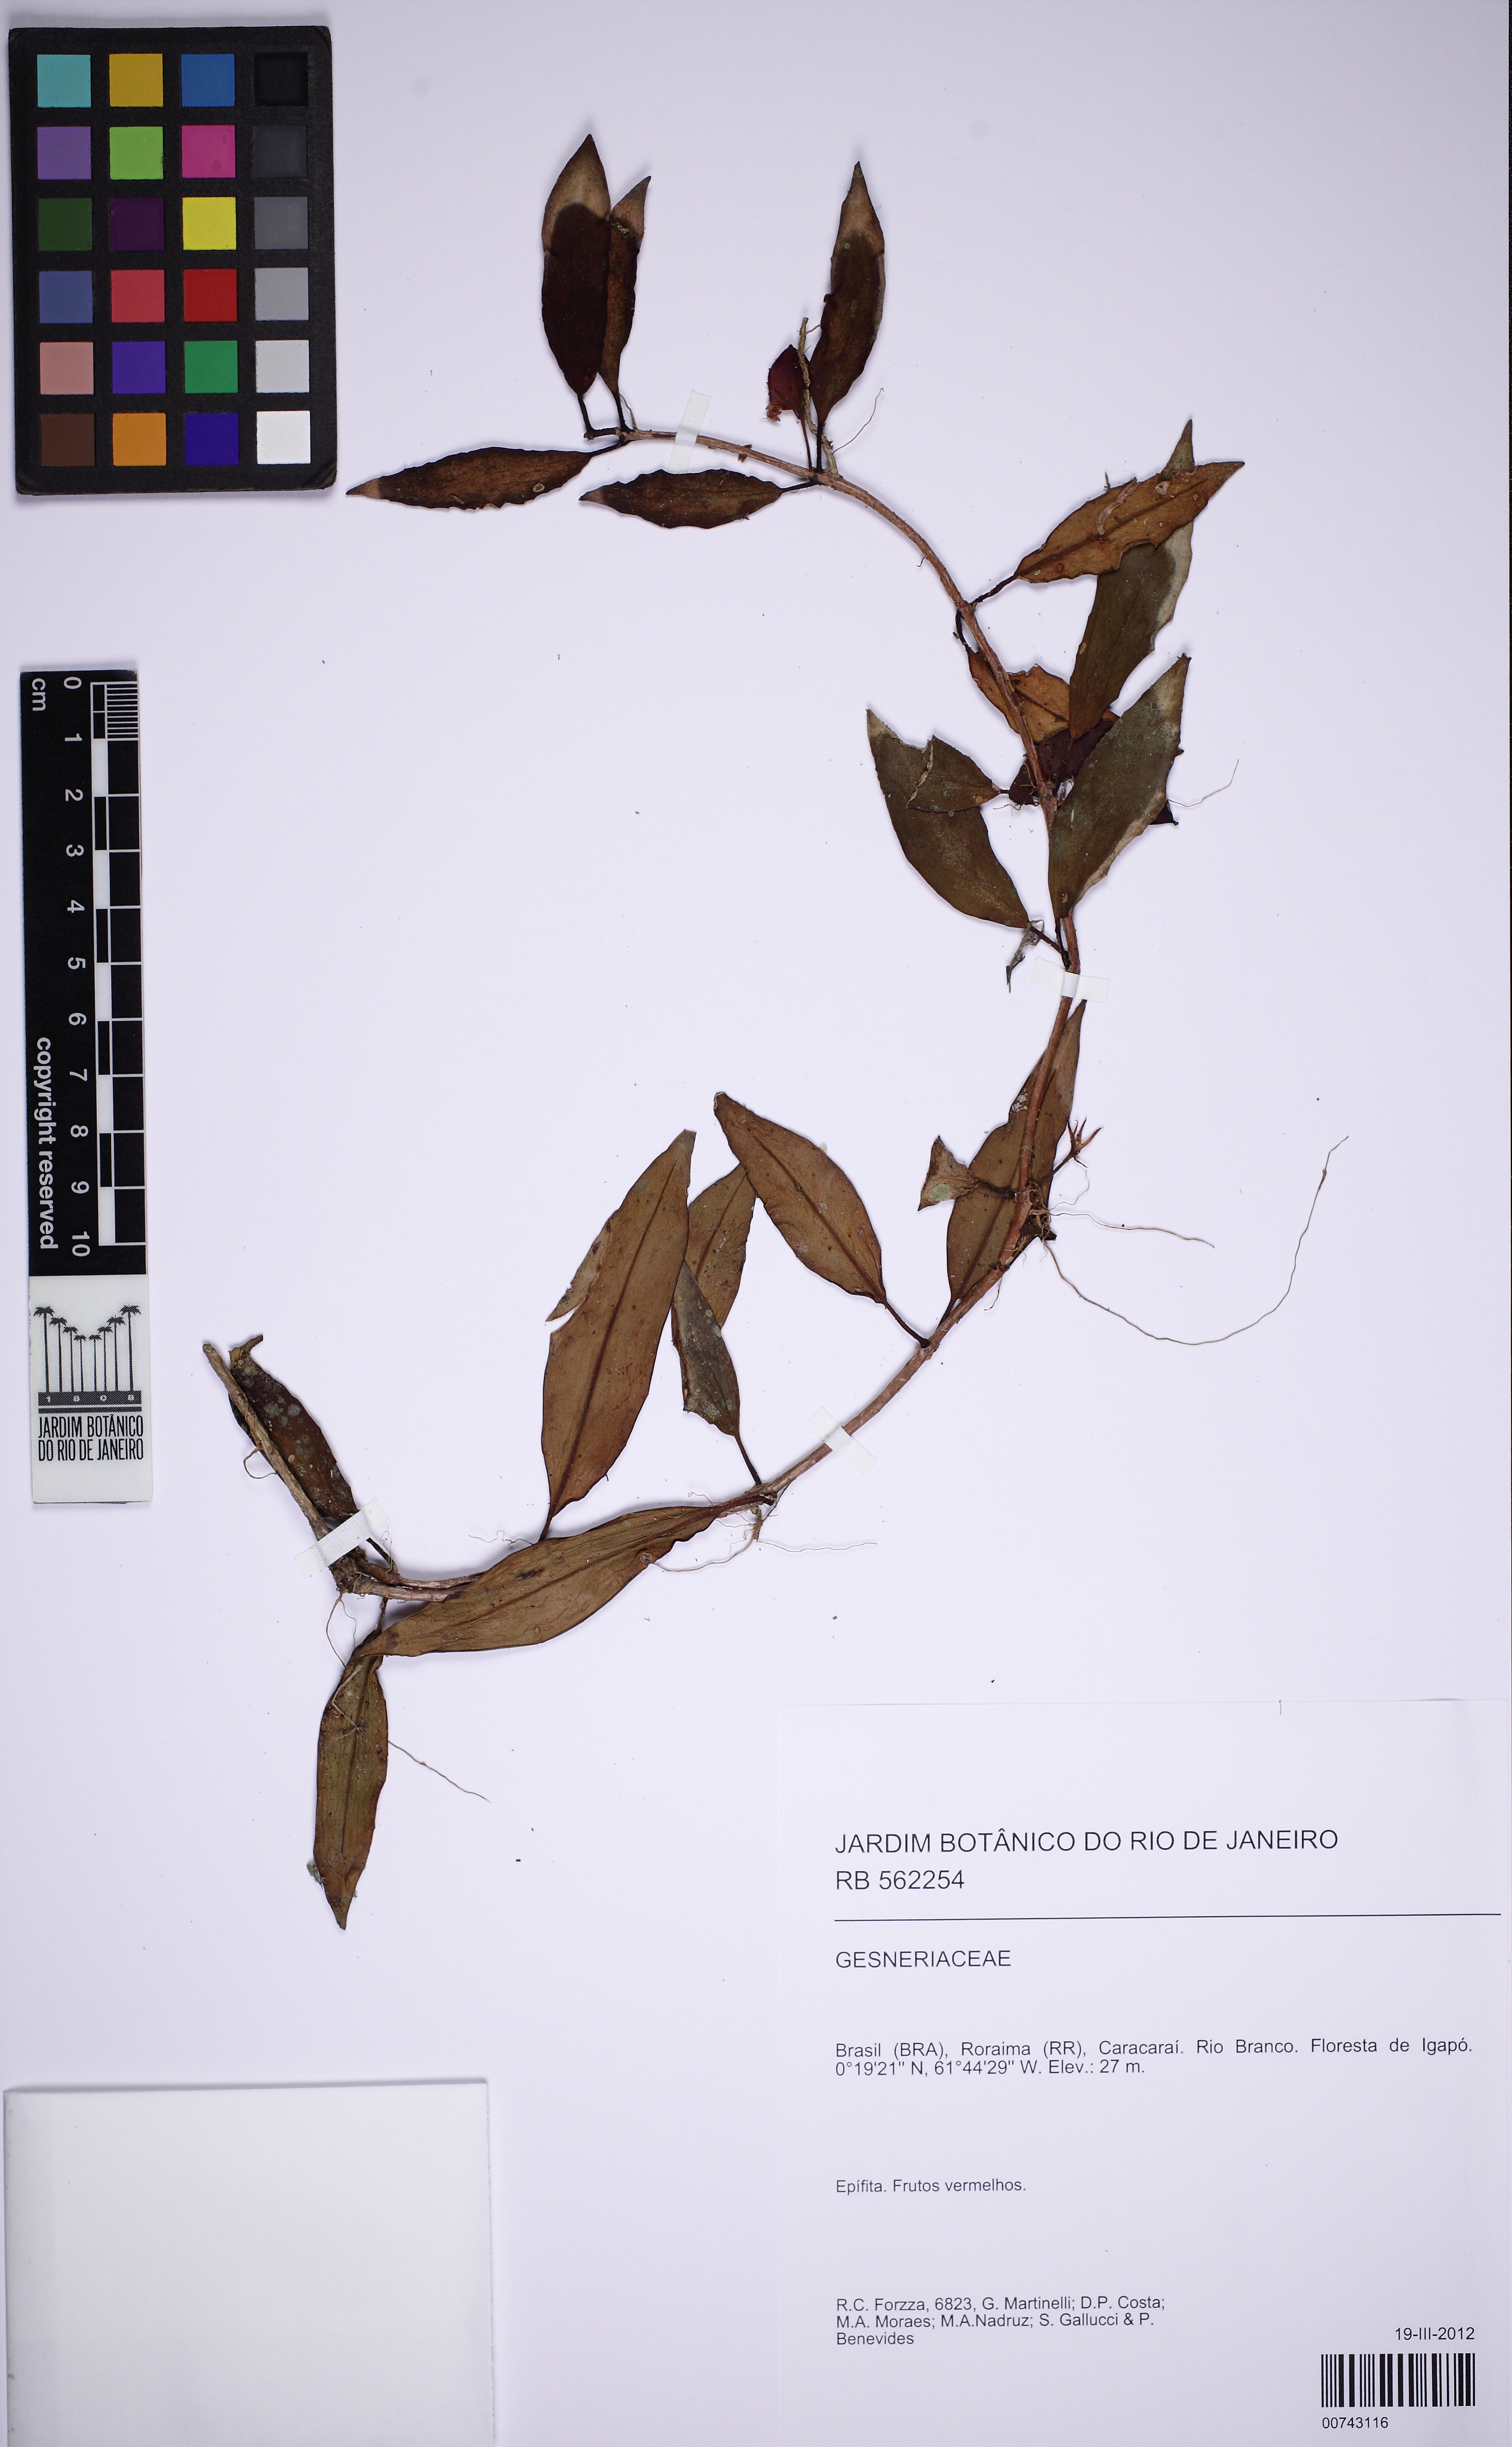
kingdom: Plantae
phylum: Tracheophyta
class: Magnoliopsida
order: Lamiales
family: Gesneriaceae
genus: Codonanthopsis
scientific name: Codonanthopsis
